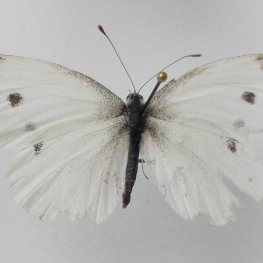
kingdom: Animalia
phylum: Arthropoda
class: Insecta
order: Lepidoptera
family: Pieridae
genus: Pieris
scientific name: Pieris rapae
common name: Cabbage White
